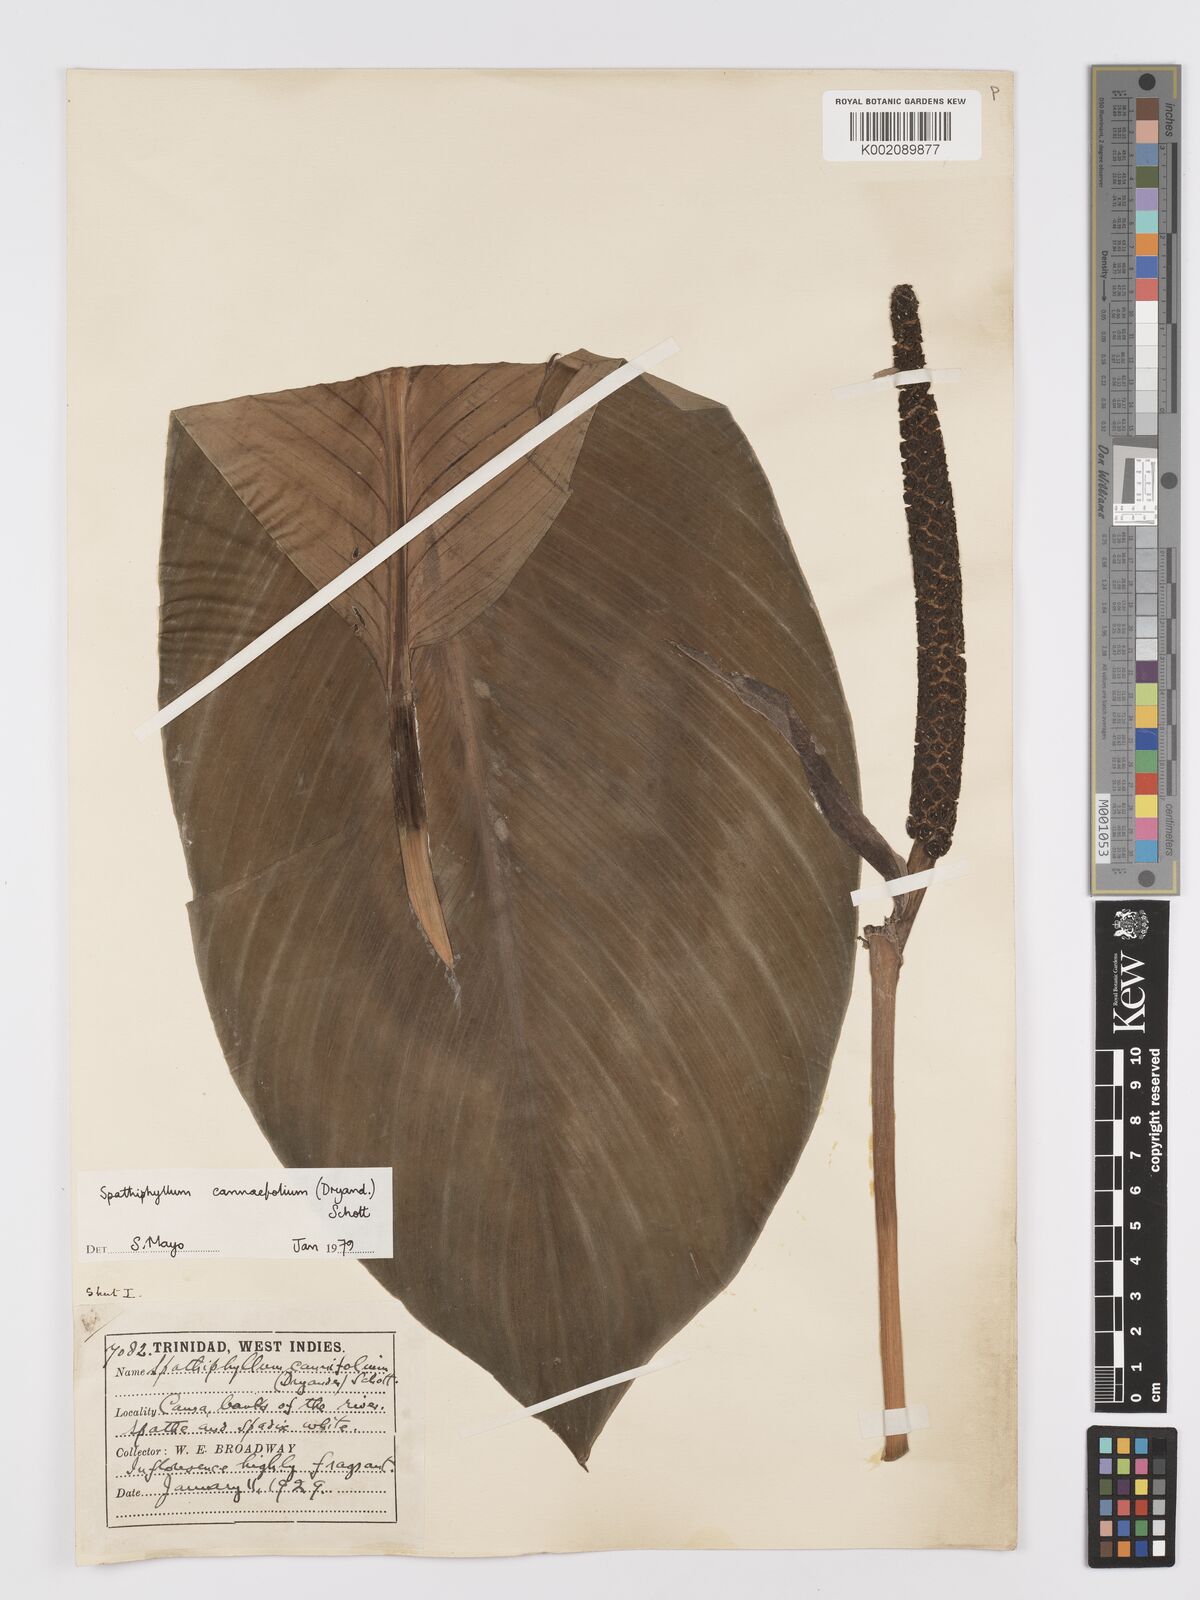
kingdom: Plantae
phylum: Tracheophyta
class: Liliopsida
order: Alismatales
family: Araceae
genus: Spathiphyllum
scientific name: Spathiphyllum cannifolium
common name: Spatheflower
